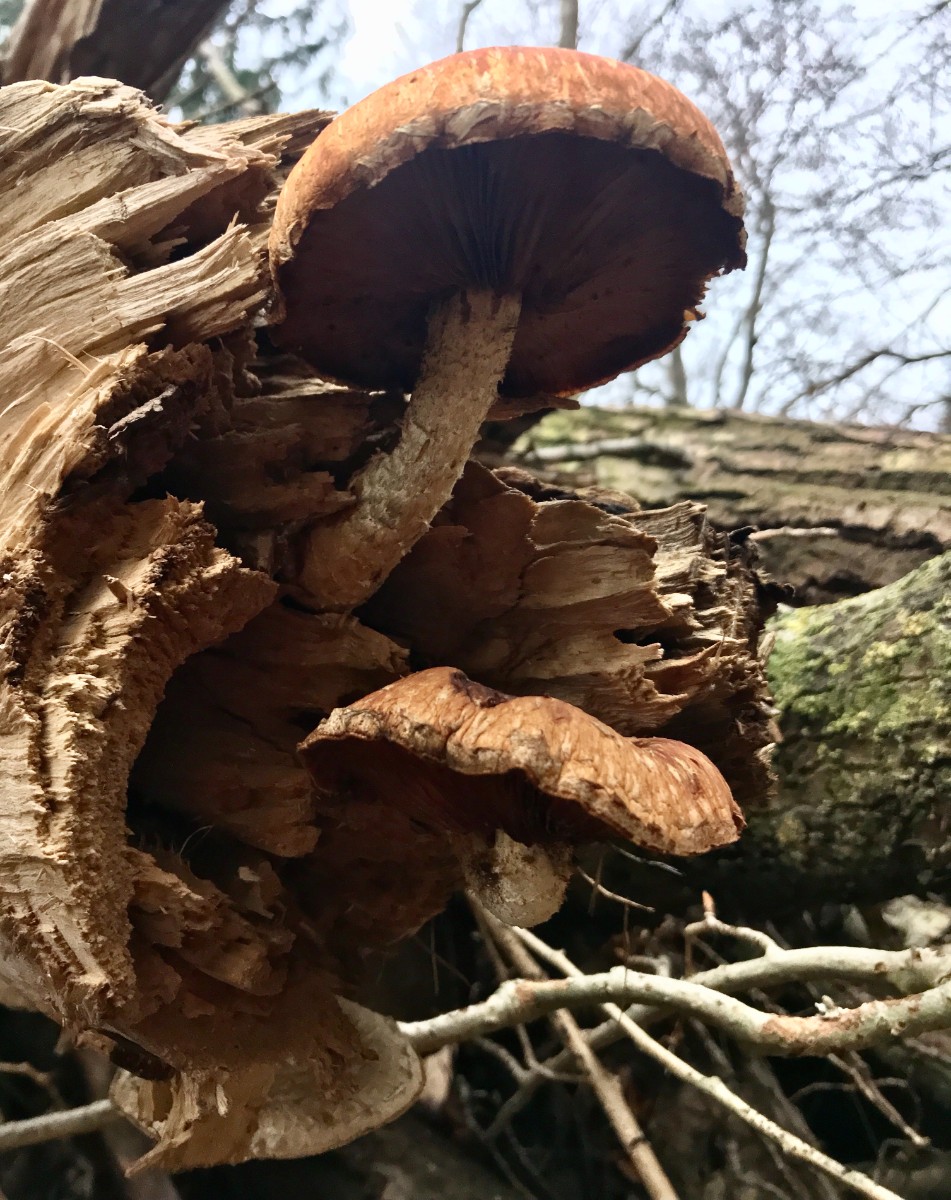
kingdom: Fungi
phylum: Basidiomycota
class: Agaricomycetes
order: Agaricales
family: Strophariaceae
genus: Pholiota
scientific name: Pholiota populnea
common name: poppel-kæmpeskælhat
